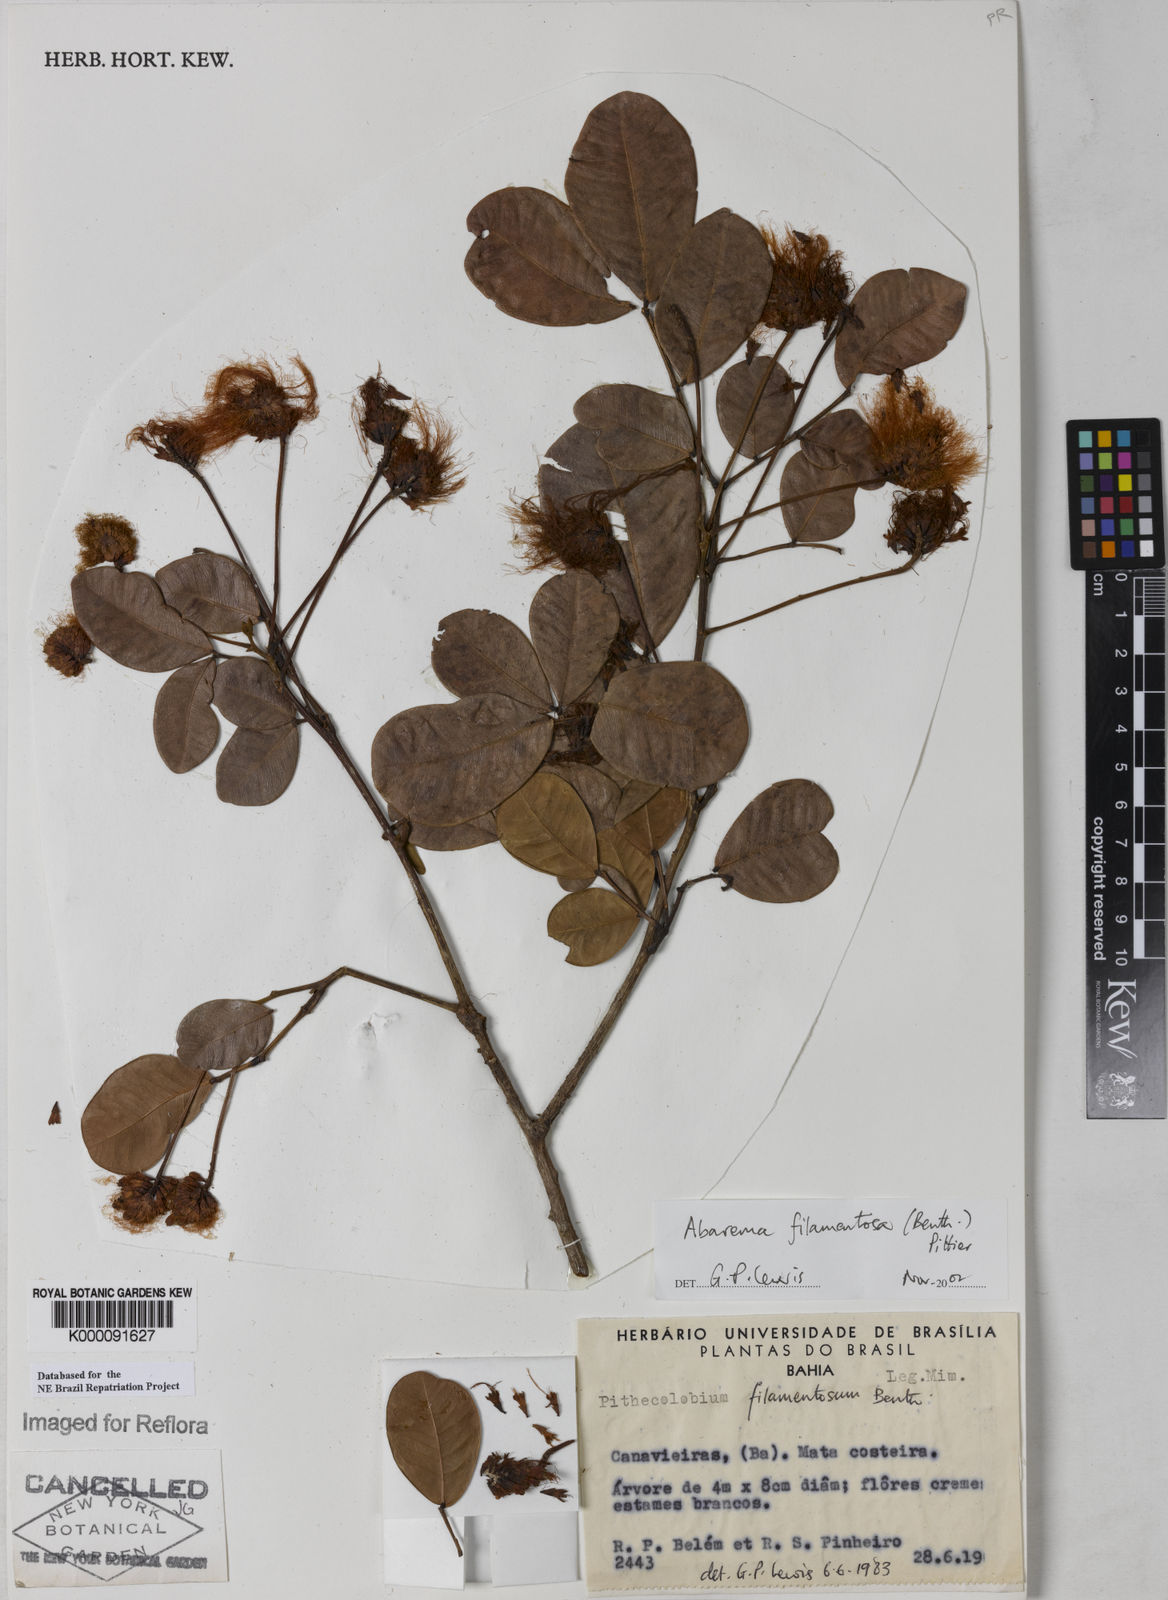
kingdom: Plantae
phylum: Tracheophyta
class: Magnoliopsida
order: Fabales
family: Fabaceae
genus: Jupunba
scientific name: Jupunba filamentosa
